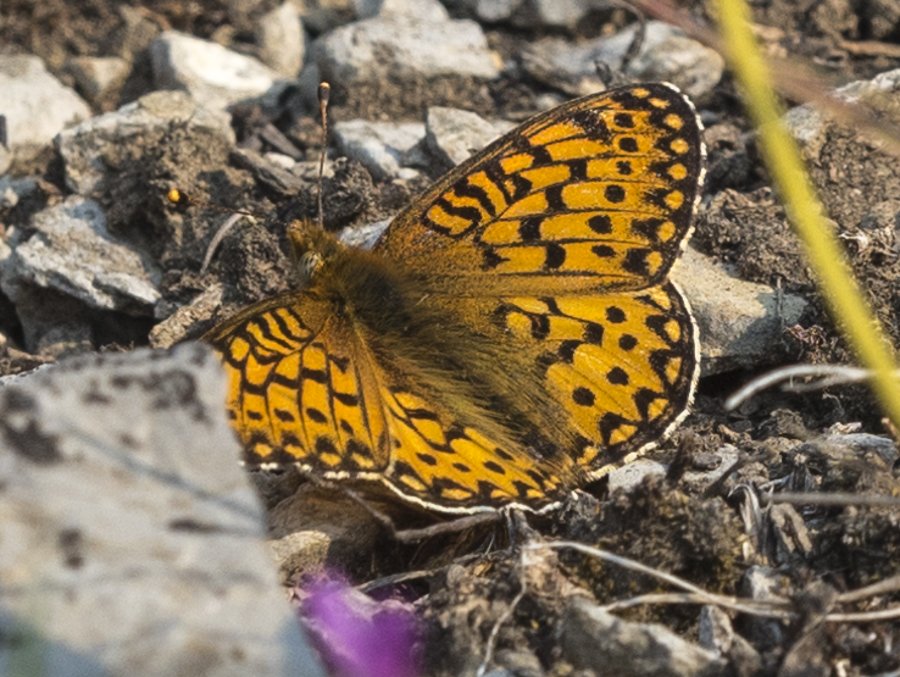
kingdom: Animalia
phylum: Arthropoda
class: Insecta
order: Lepidoptera
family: Nymphalidae
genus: Speyeria
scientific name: Speyeria mormonia
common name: Mormon Fritillary
